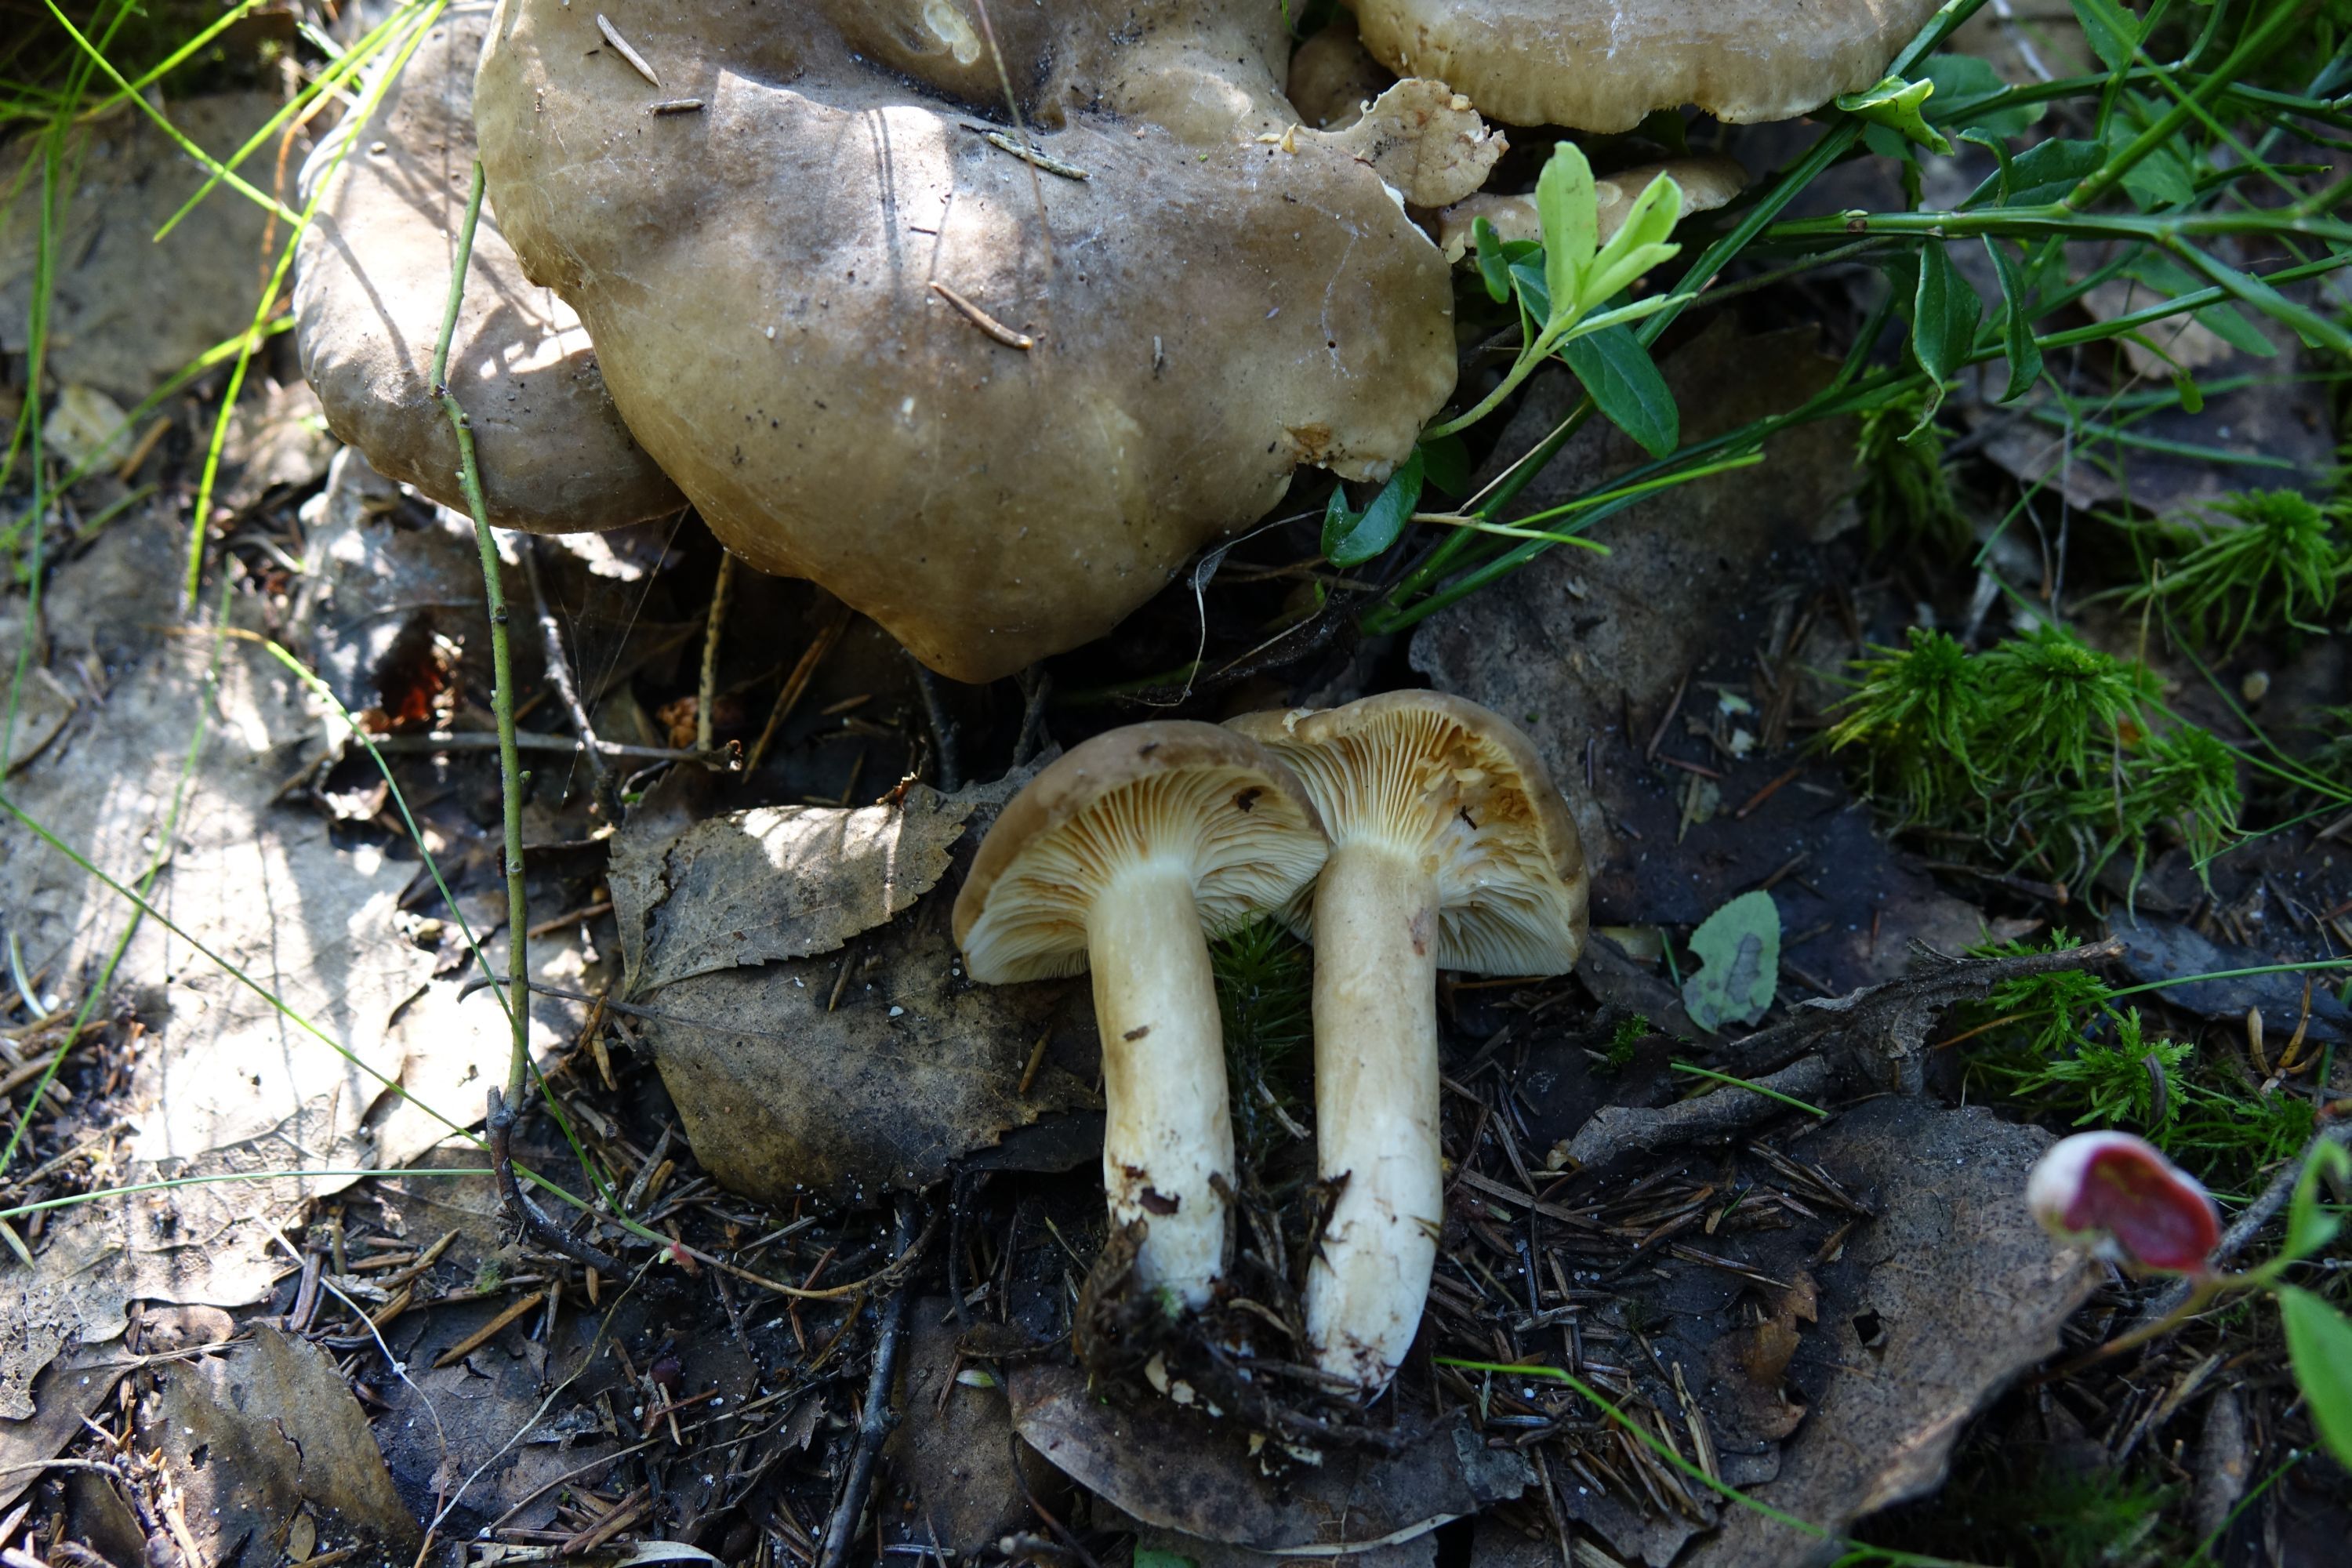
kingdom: Fungi
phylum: Basidiomycota
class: Agaricomycetes
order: Russulales
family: Russulaceae
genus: Lactarius
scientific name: Lactarius fuliginosus
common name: Sooty milkcap
